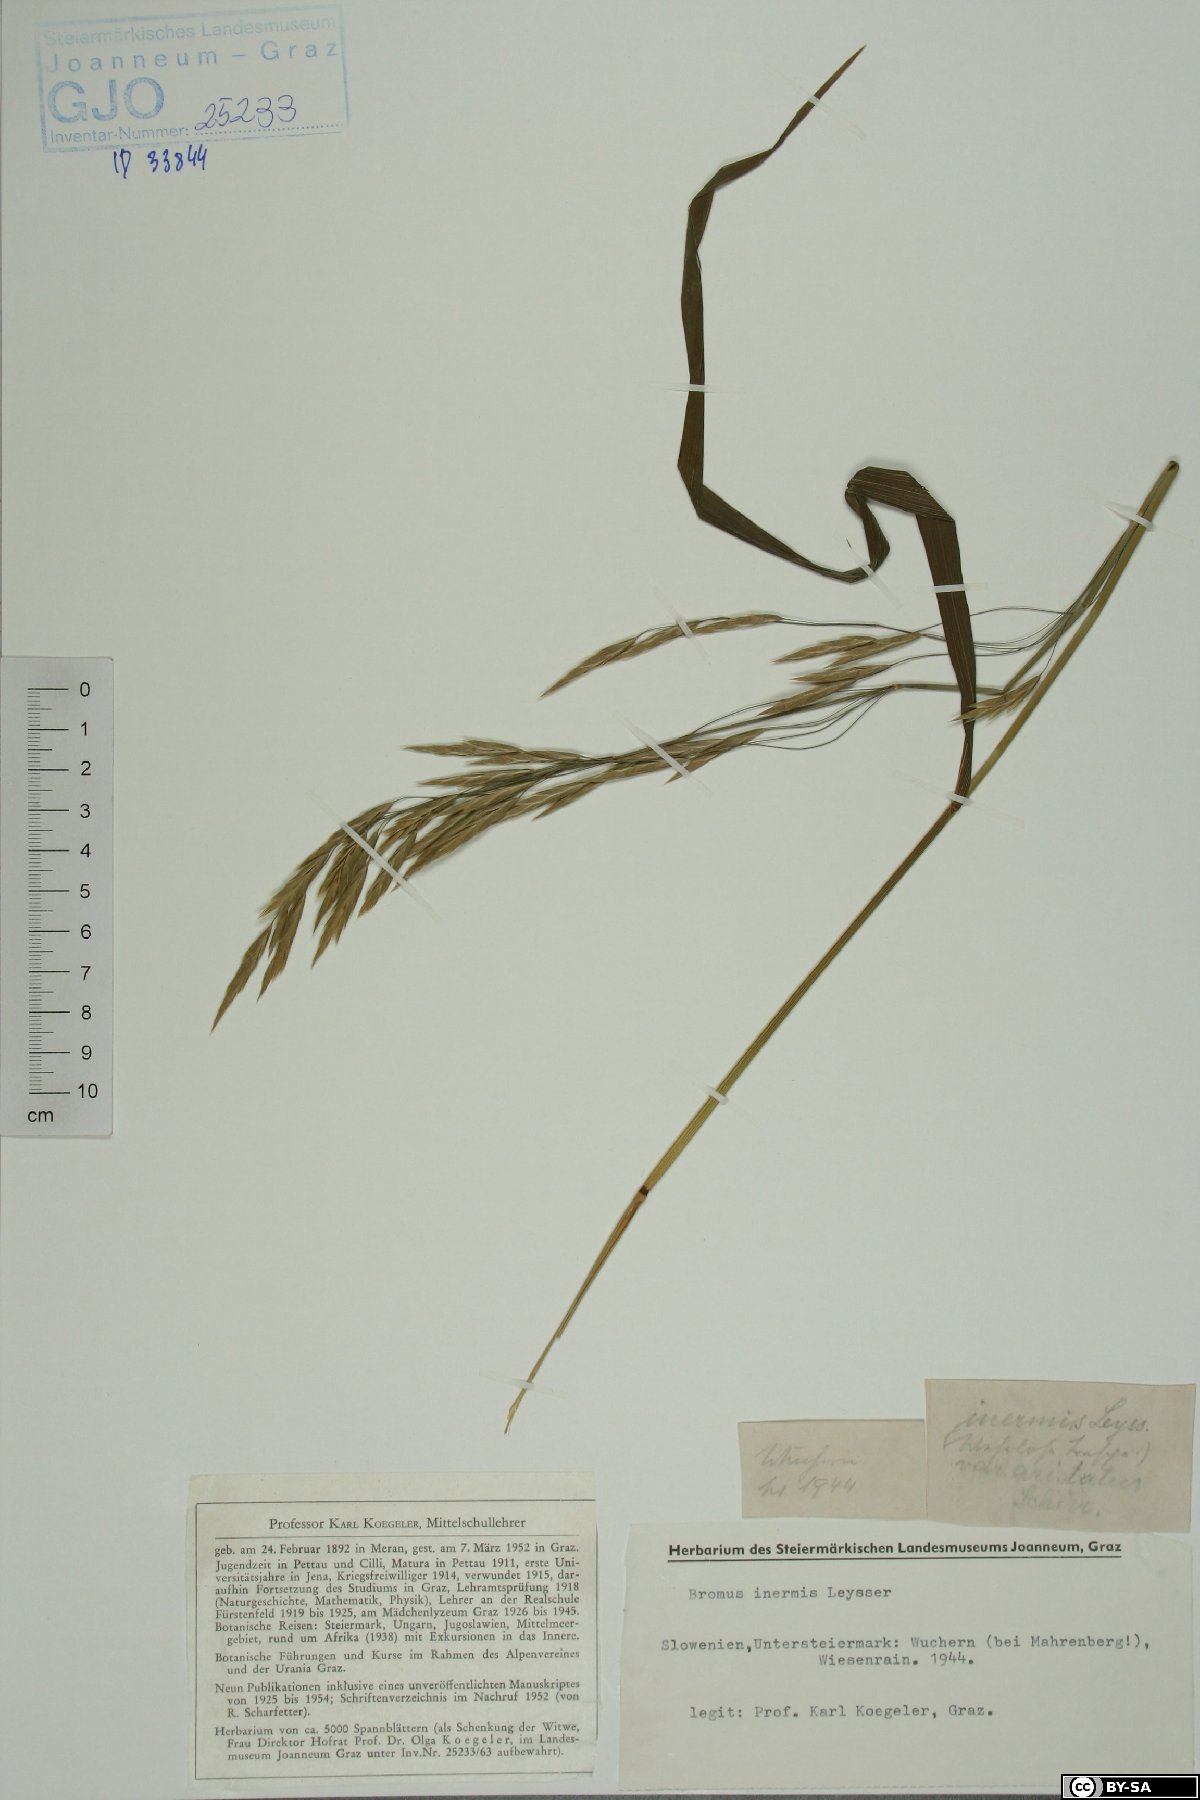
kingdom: Plantae
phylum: Tracheophyta
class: Liliopsida
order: Poales
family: Poaceae
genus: Bromus
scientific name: Bromus inermis
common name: Smooth brome
